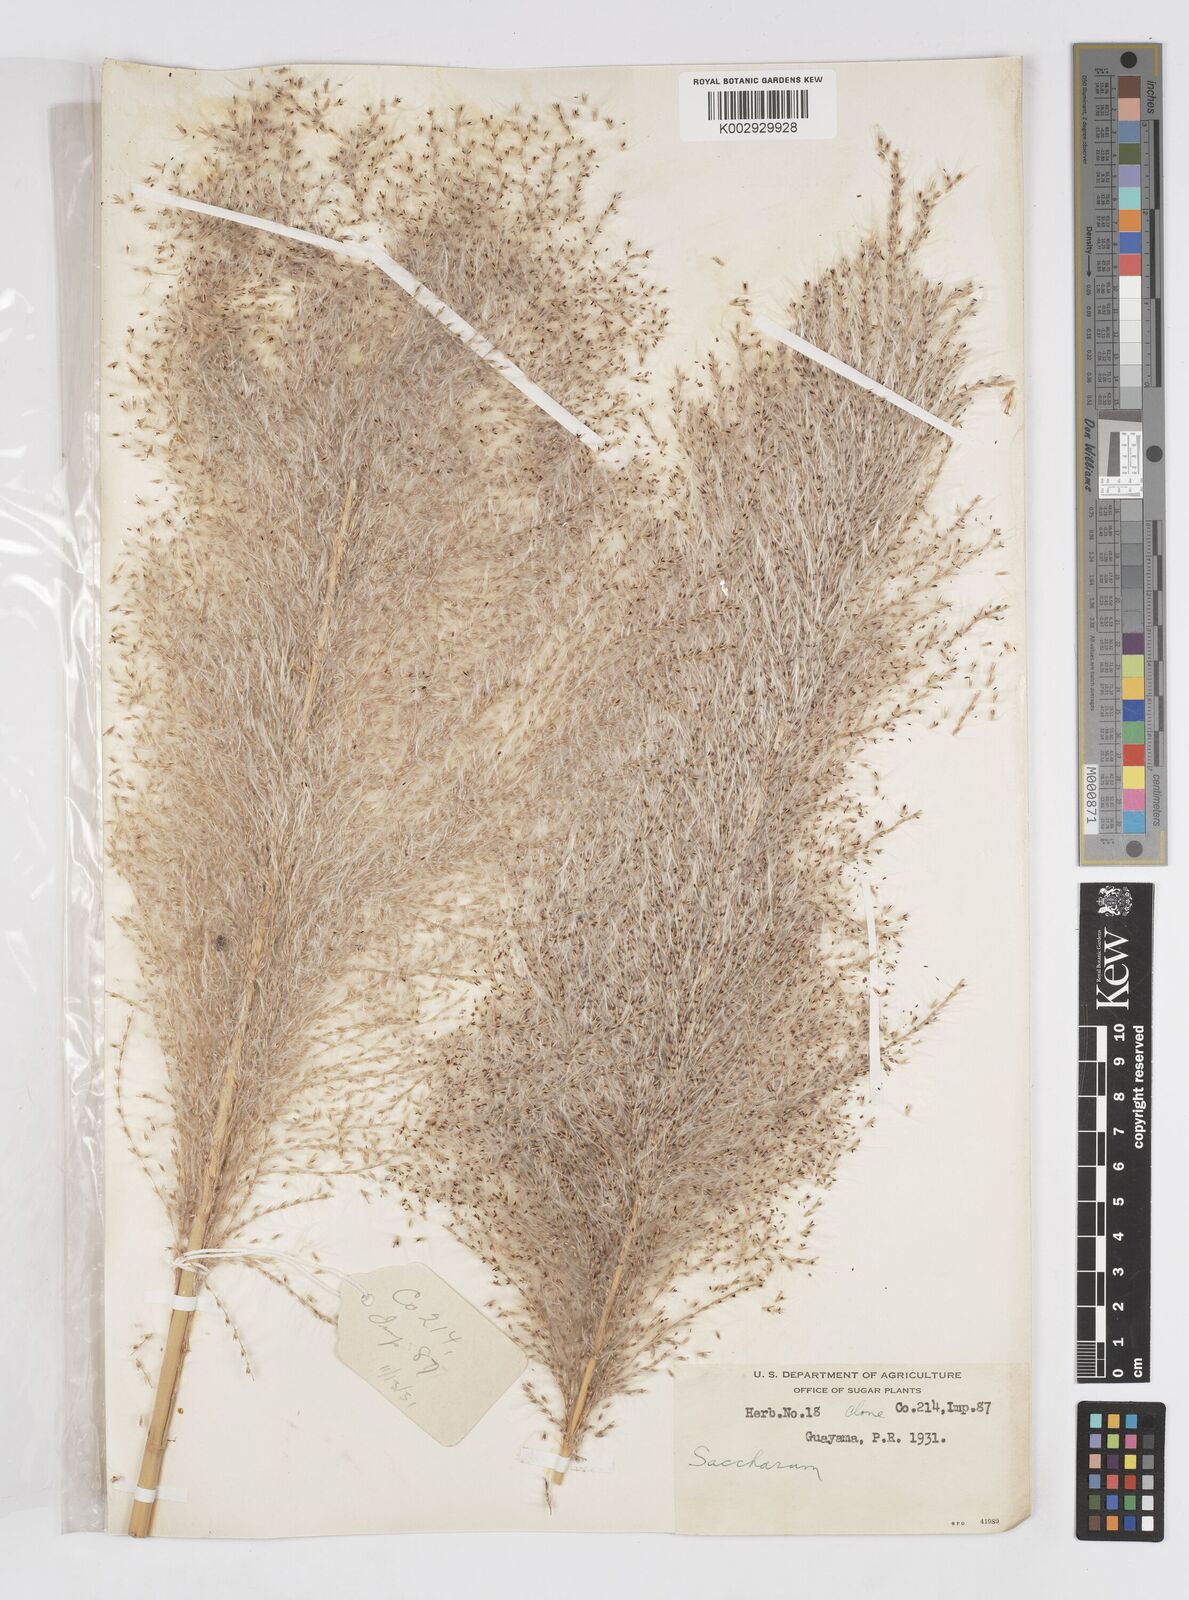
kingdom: Plantae
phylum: Tracheophyta
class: Liliopsida
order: Poales
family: Poaceae
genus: Saccharum
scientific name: Saccharum officinarum
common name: Sugarcane
